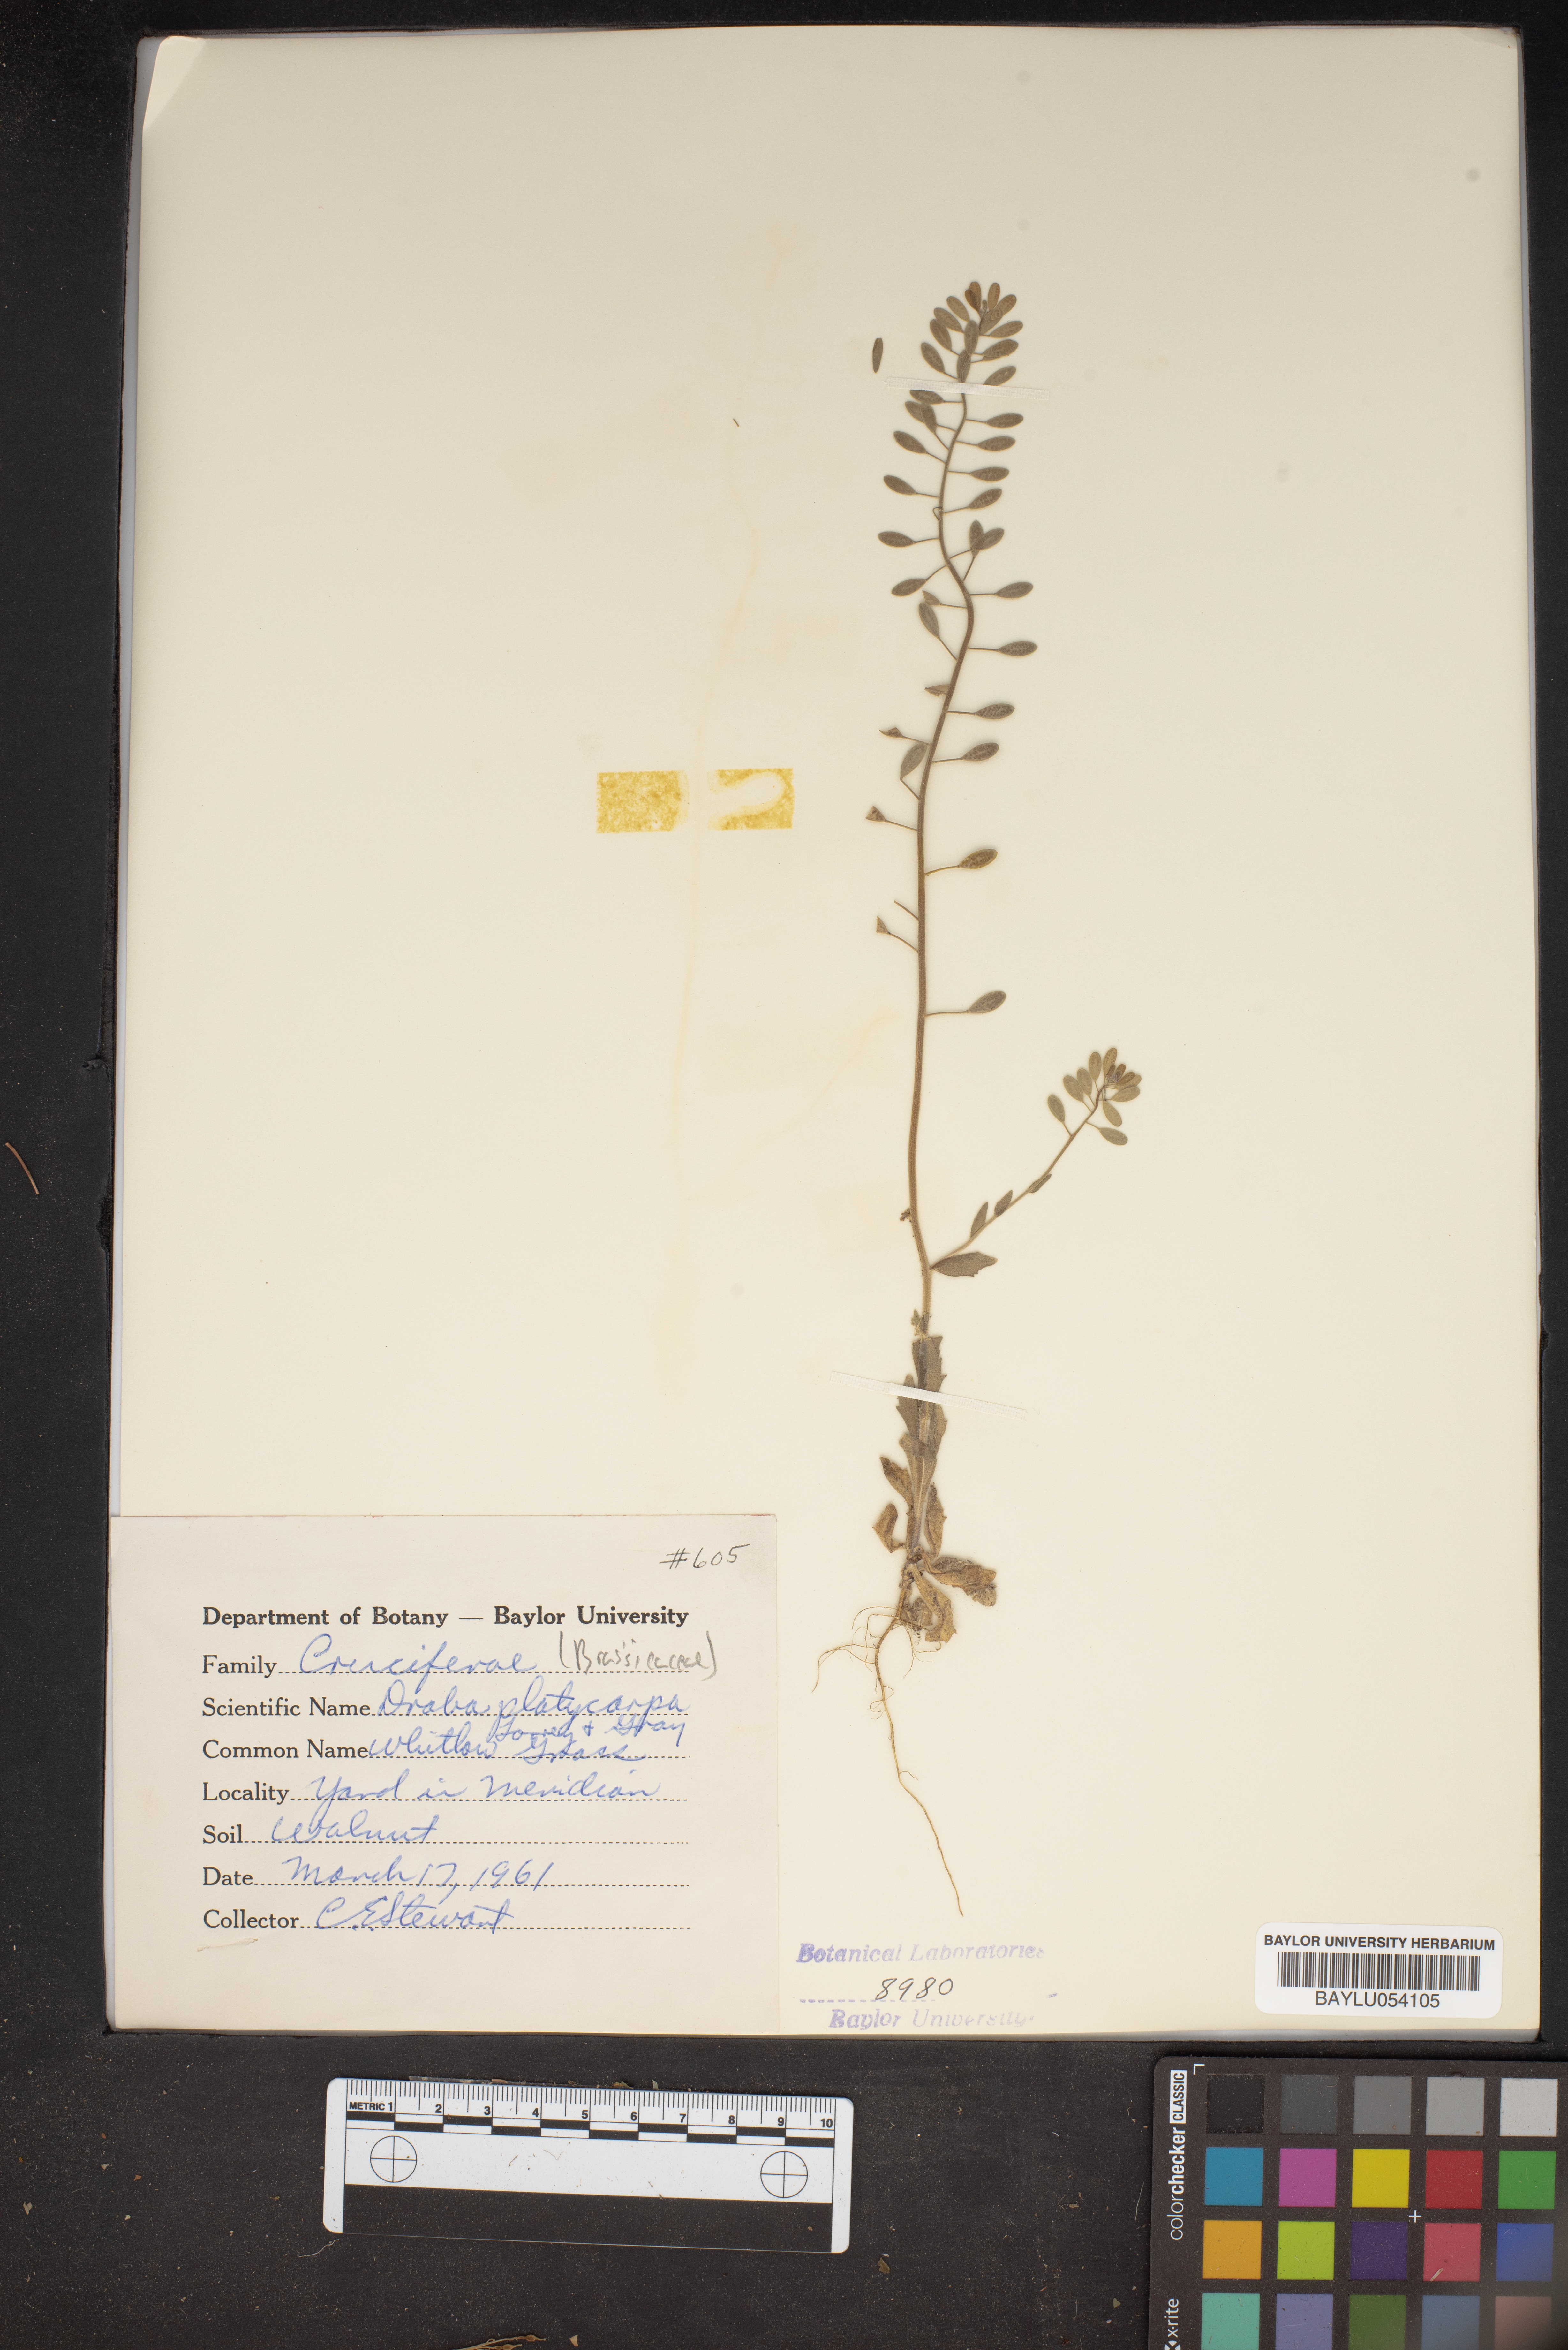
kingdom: Plantae
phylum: Tracheophyta
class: Magnoliopsida
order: Brassicales
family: Brassicaceae
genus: Tomostima
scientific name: Tomostima platycarpa
